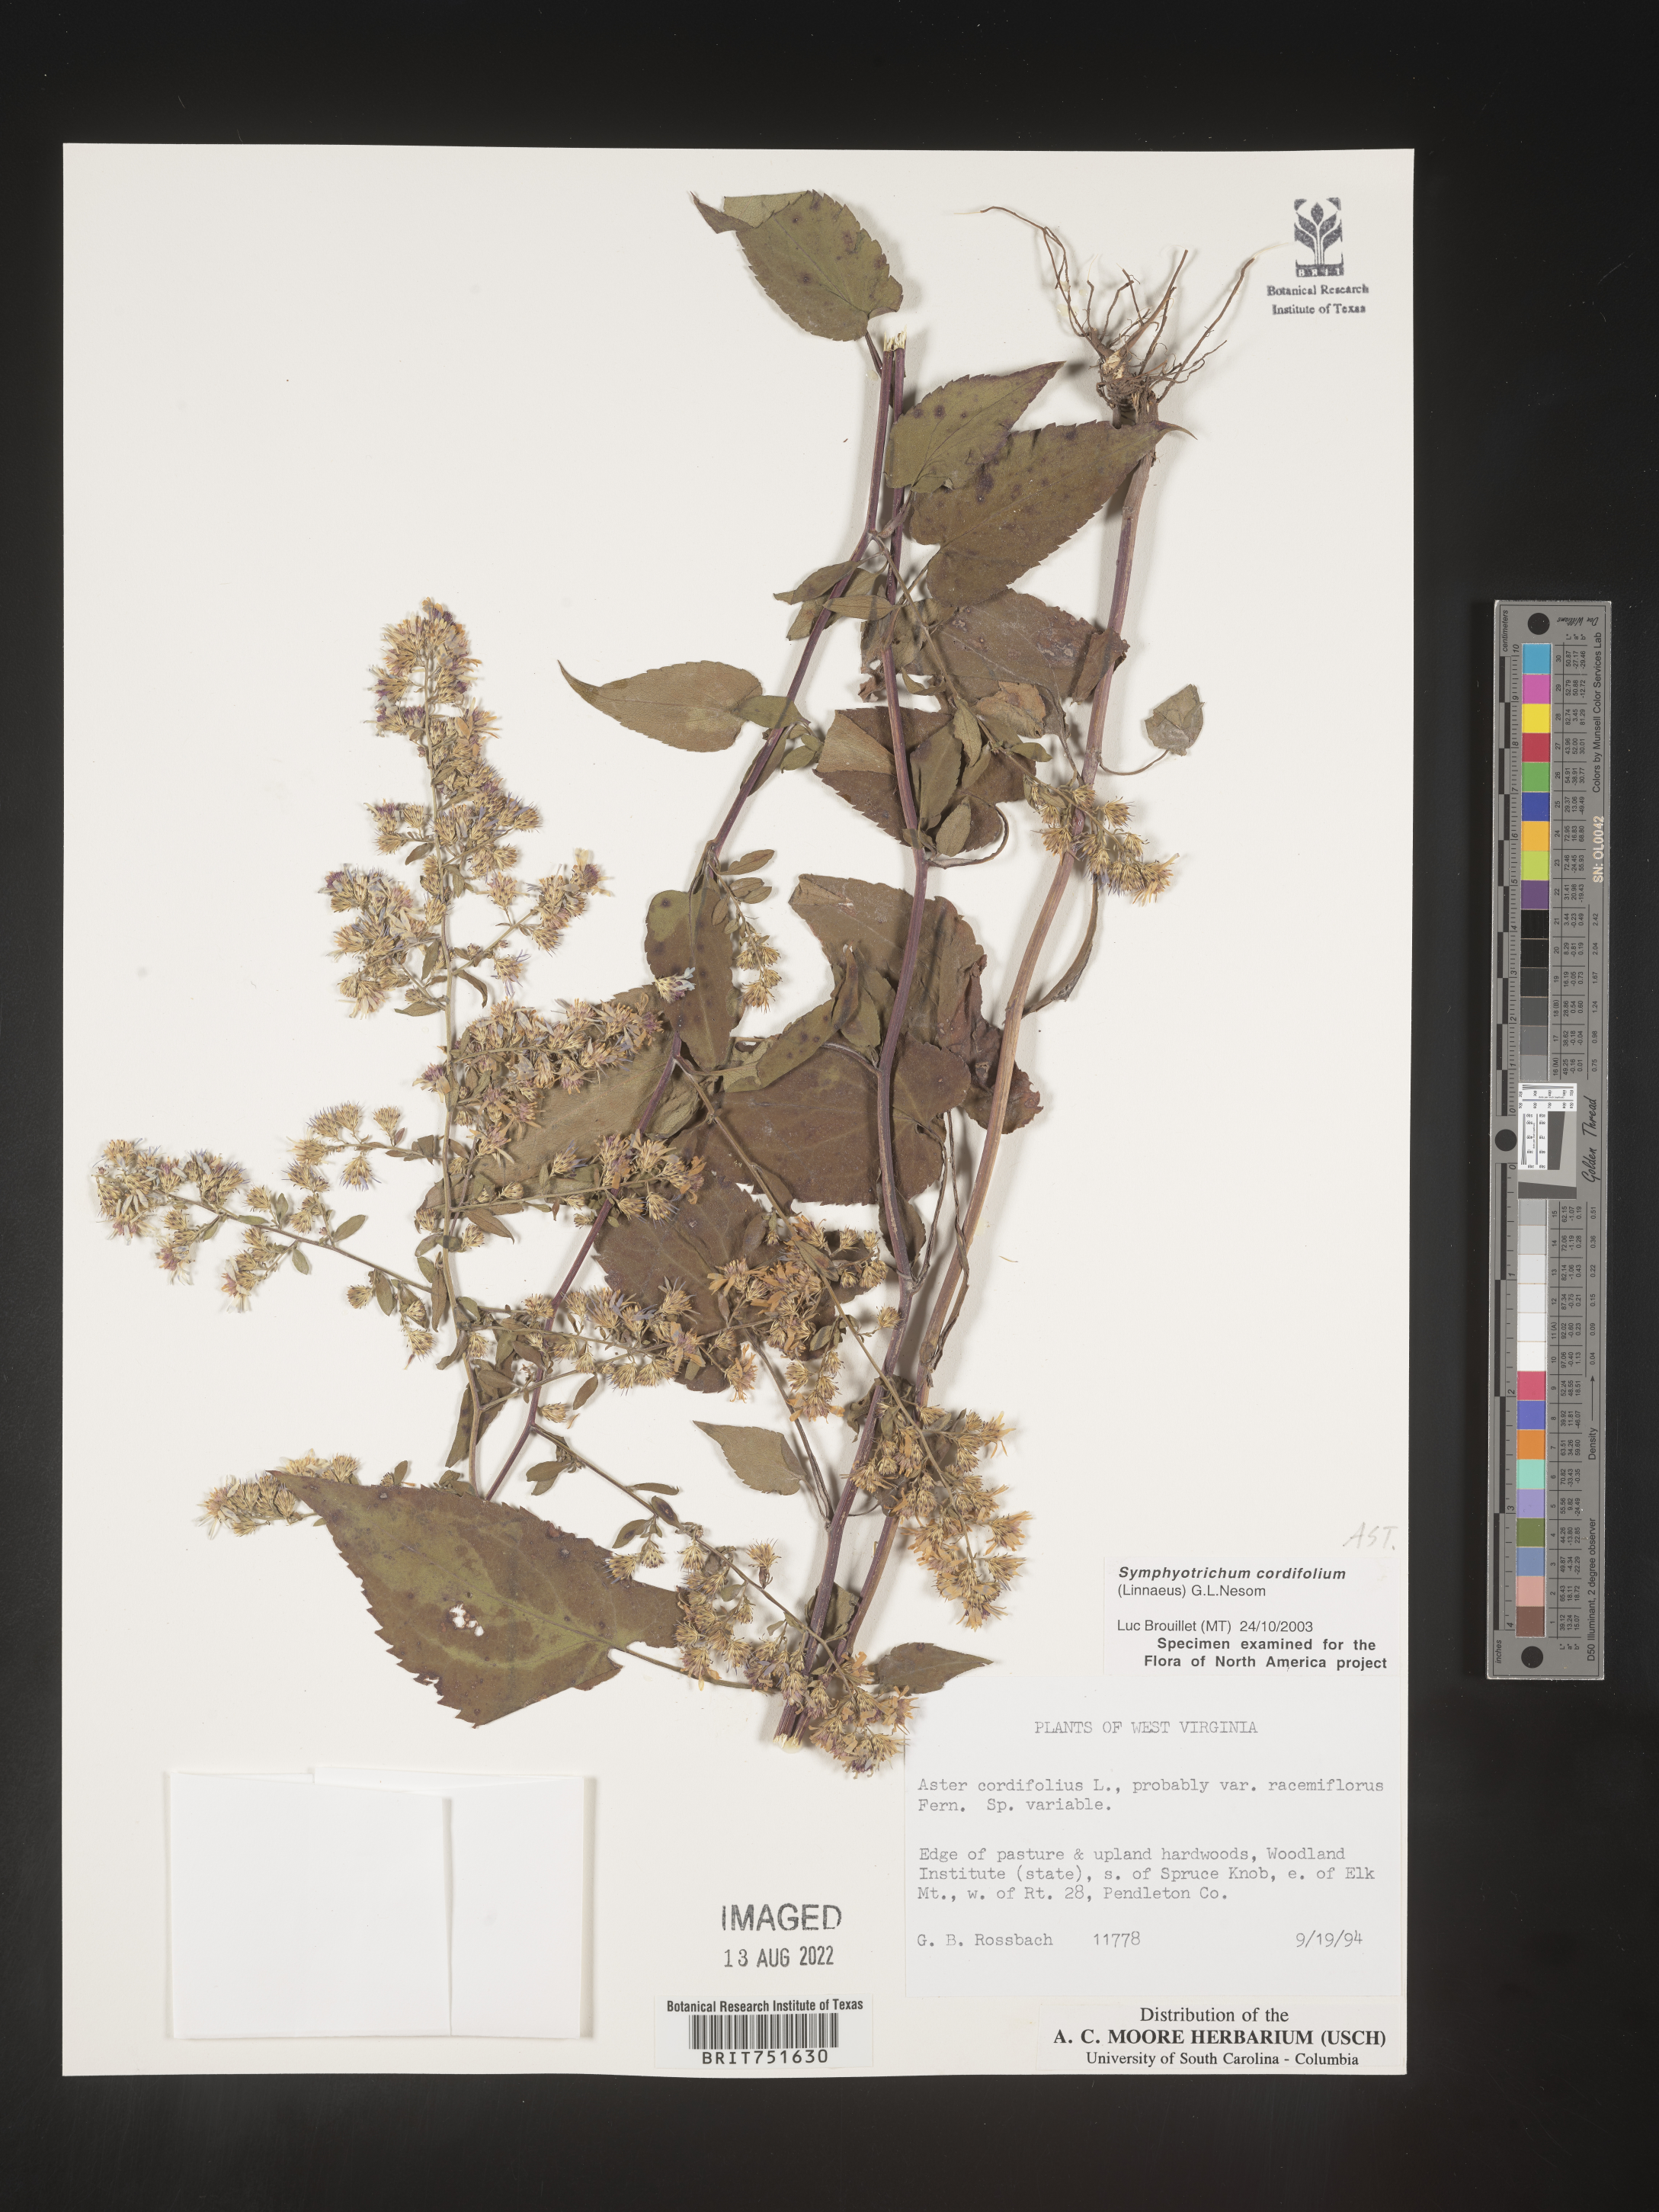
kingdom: Plantae
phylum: Tracheophyta
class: Magnoliopsida
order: Asterales
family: Asteraceae
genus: Symphyotrichum
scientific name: Symphyotrichum cordifolium
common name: Beeweed
